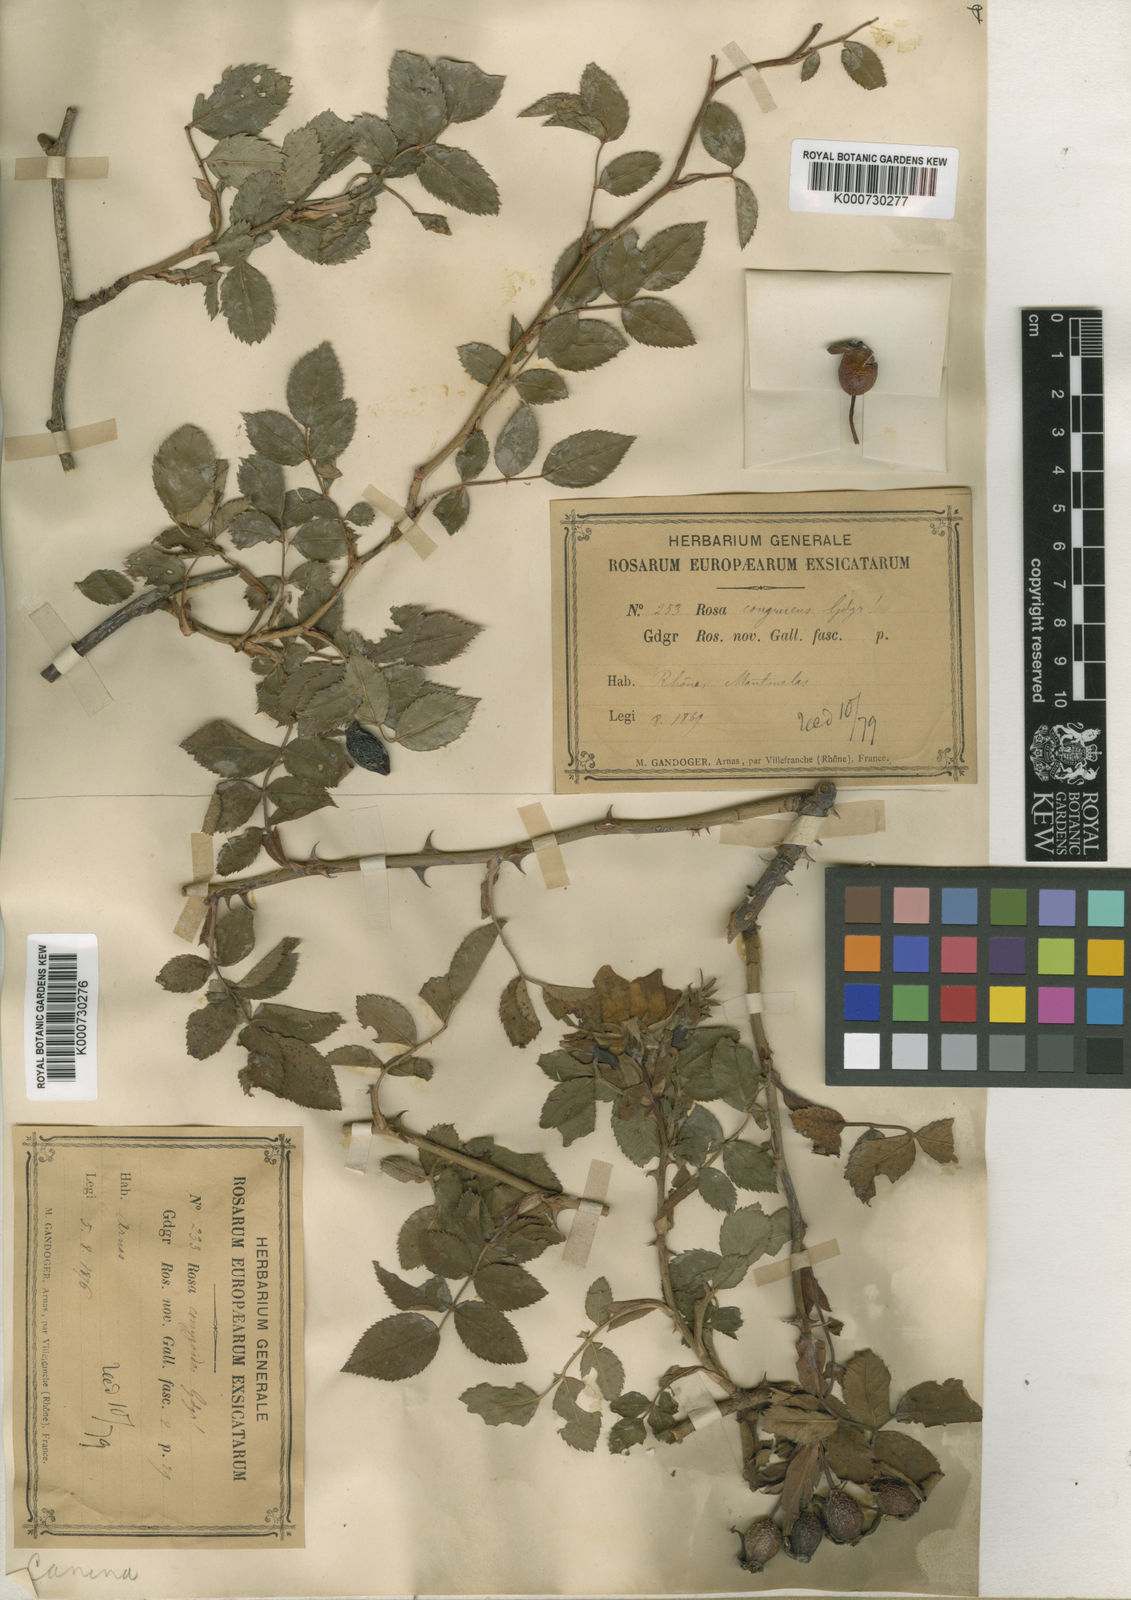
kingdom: Plantae
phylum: Tracheophyta
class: Magnoliopsida
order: Rosales
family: Rosaceae
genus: Rosa
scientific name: Rosa canina
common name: Dog rose
